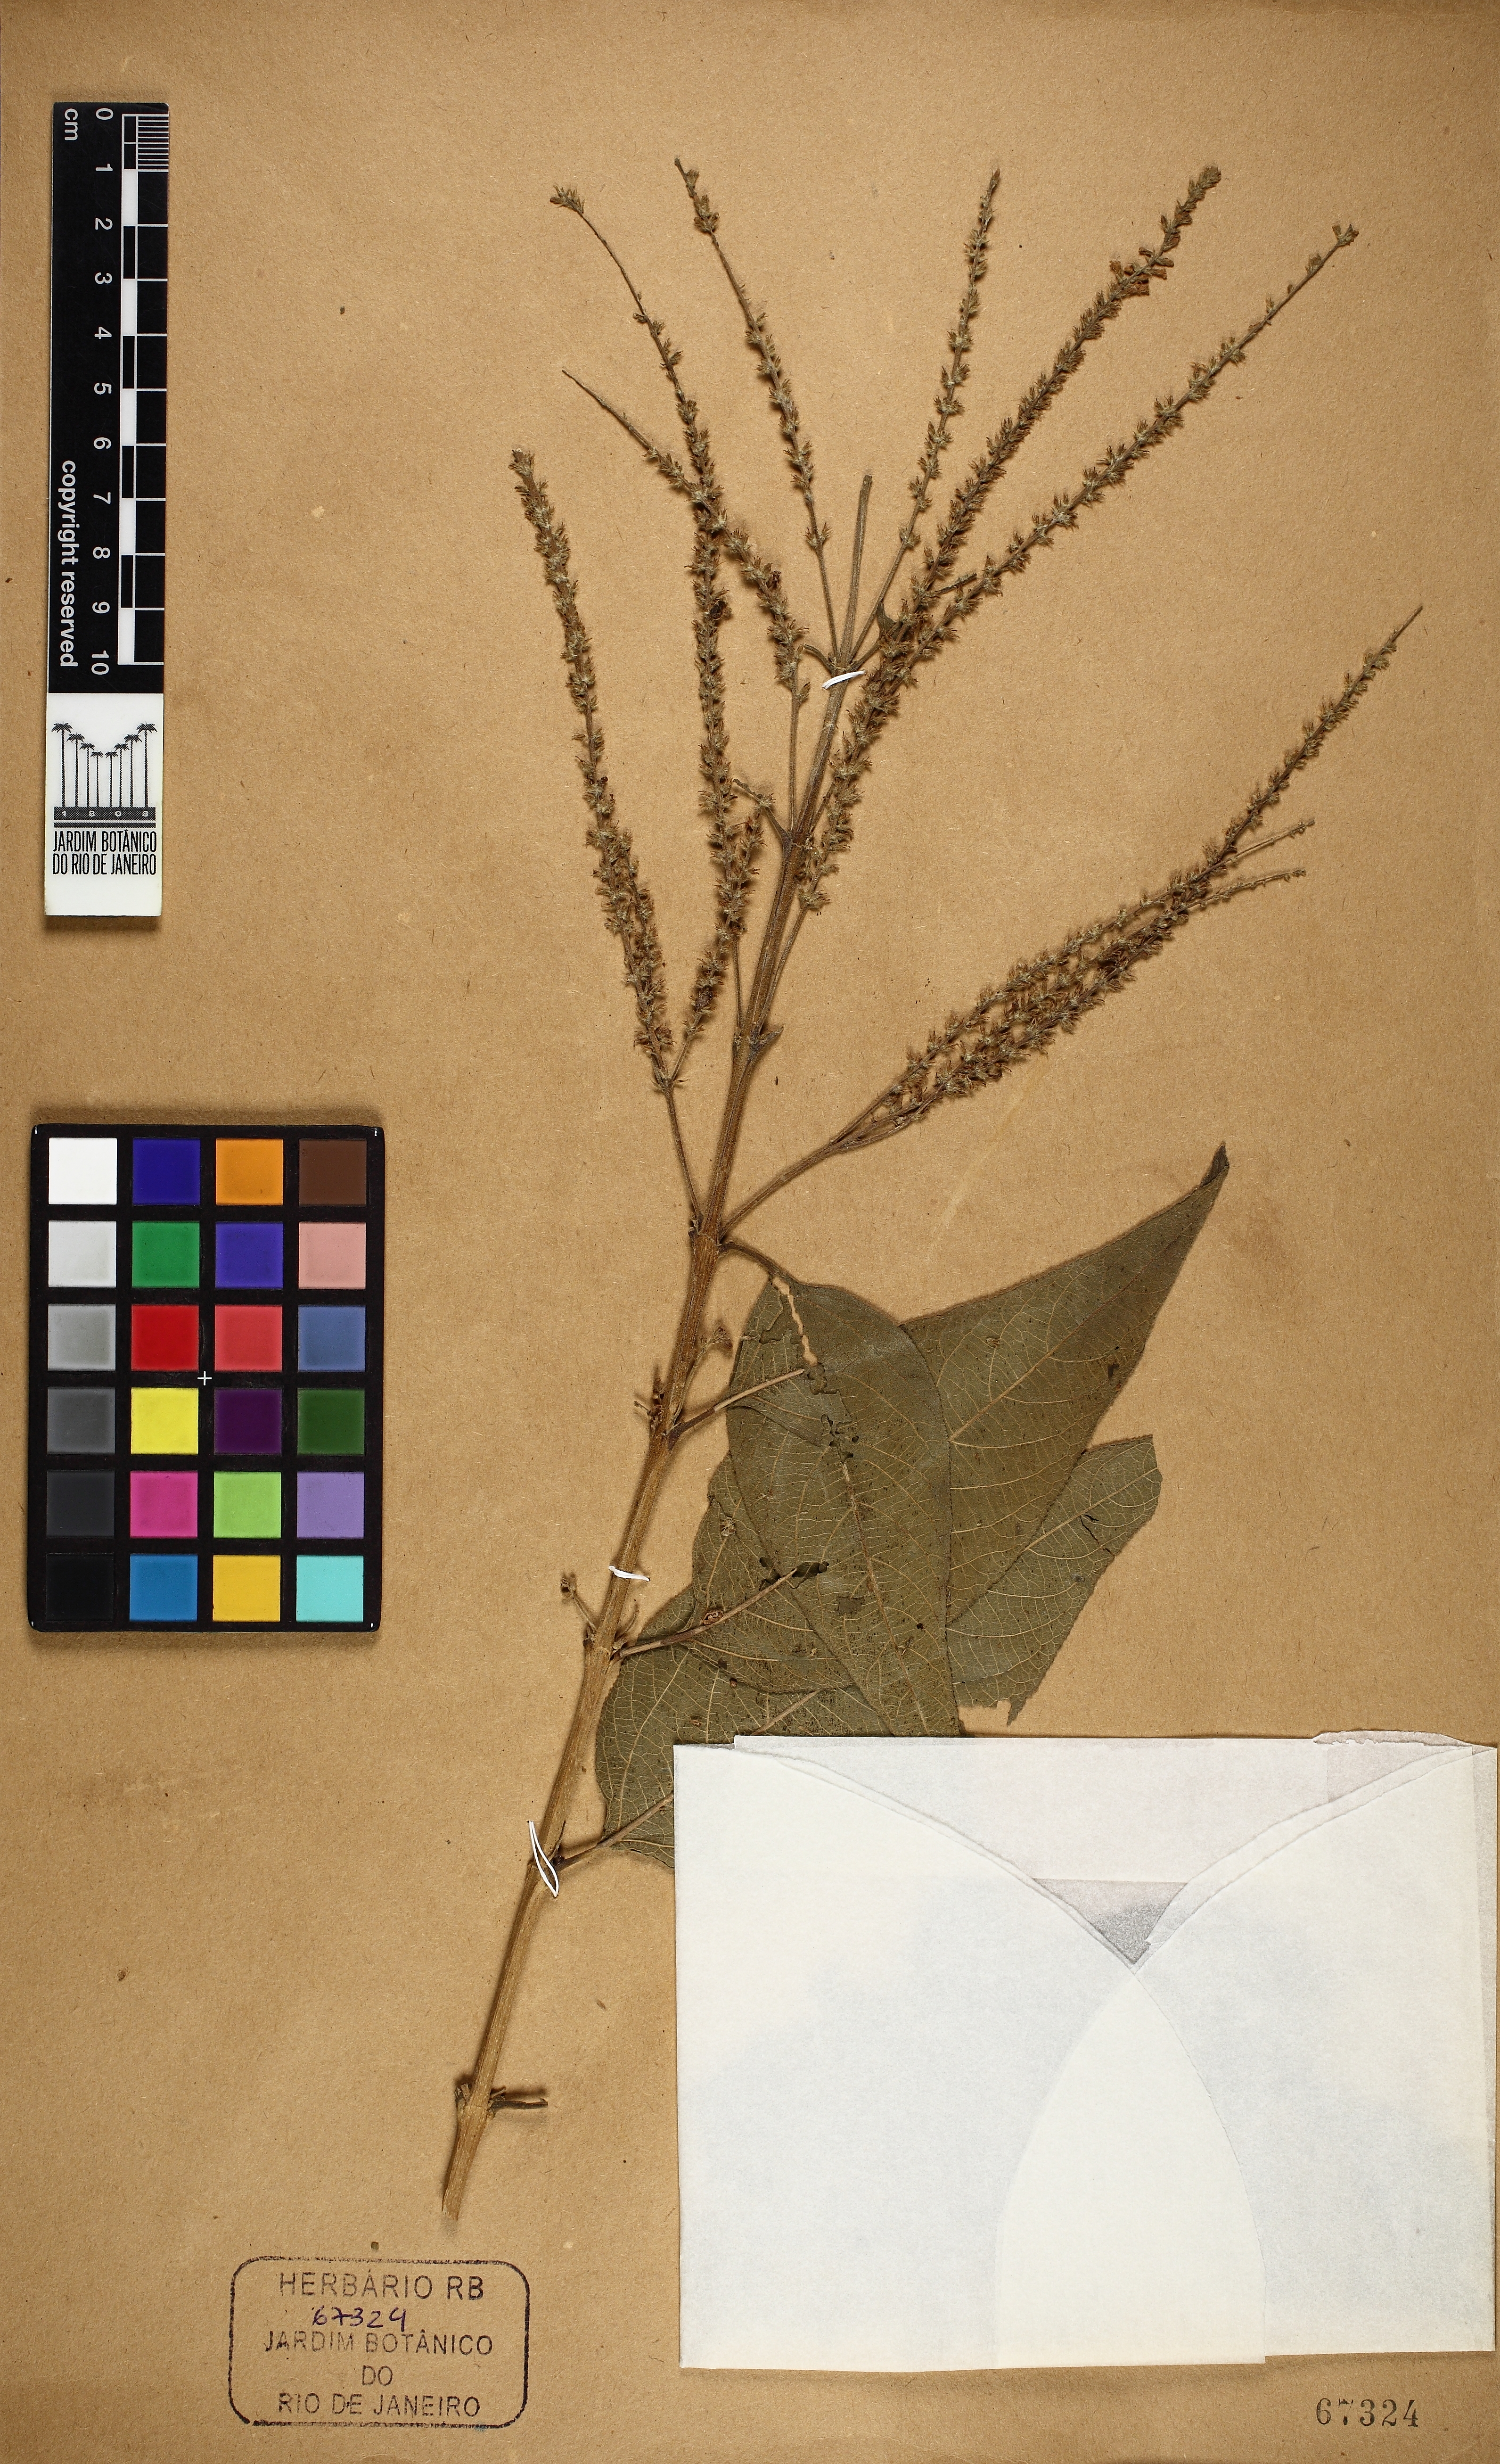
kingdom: Plantae
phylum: Tracheophyta
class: Magnoliopsida
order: Lamiales
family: Verbenaceae
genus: Aloysia
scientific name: Aloysia virgata
